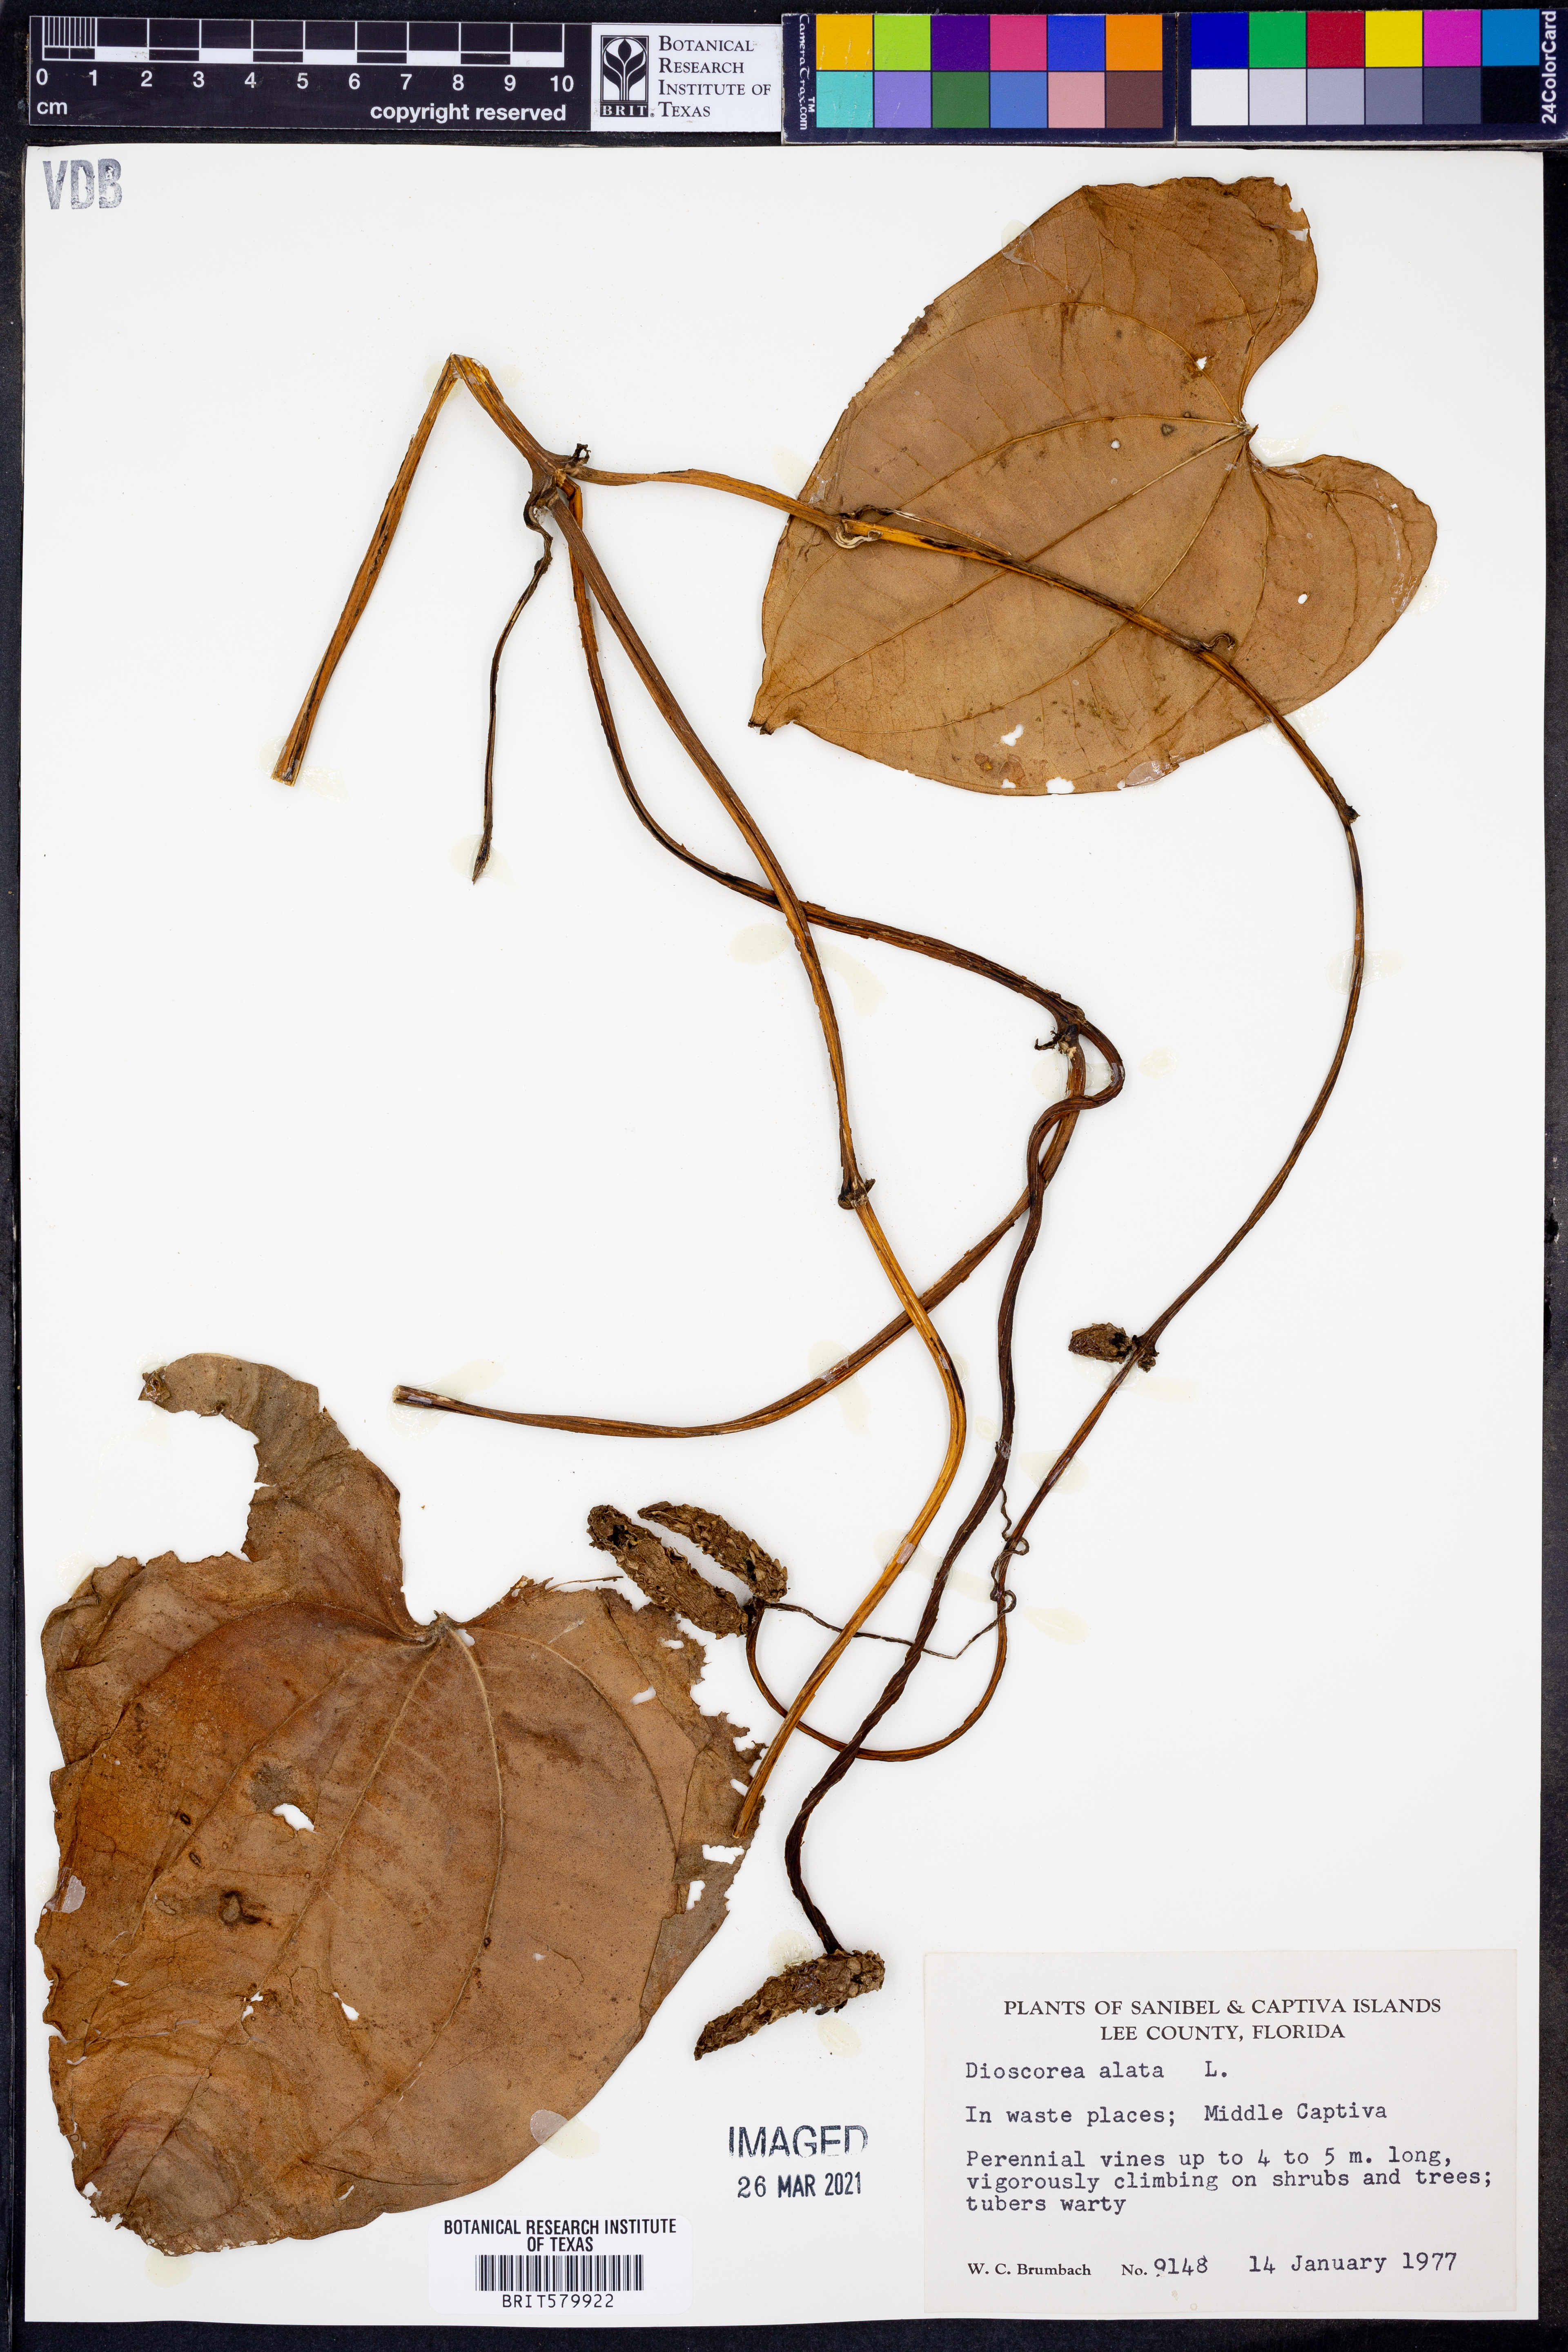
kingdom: Plantae
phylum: Tracheophyta
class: Liliopsida
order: Dioscoreales
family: Dioscoreaceae
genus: Dioscorea
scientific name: Dioscorea alata
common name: Water yam
